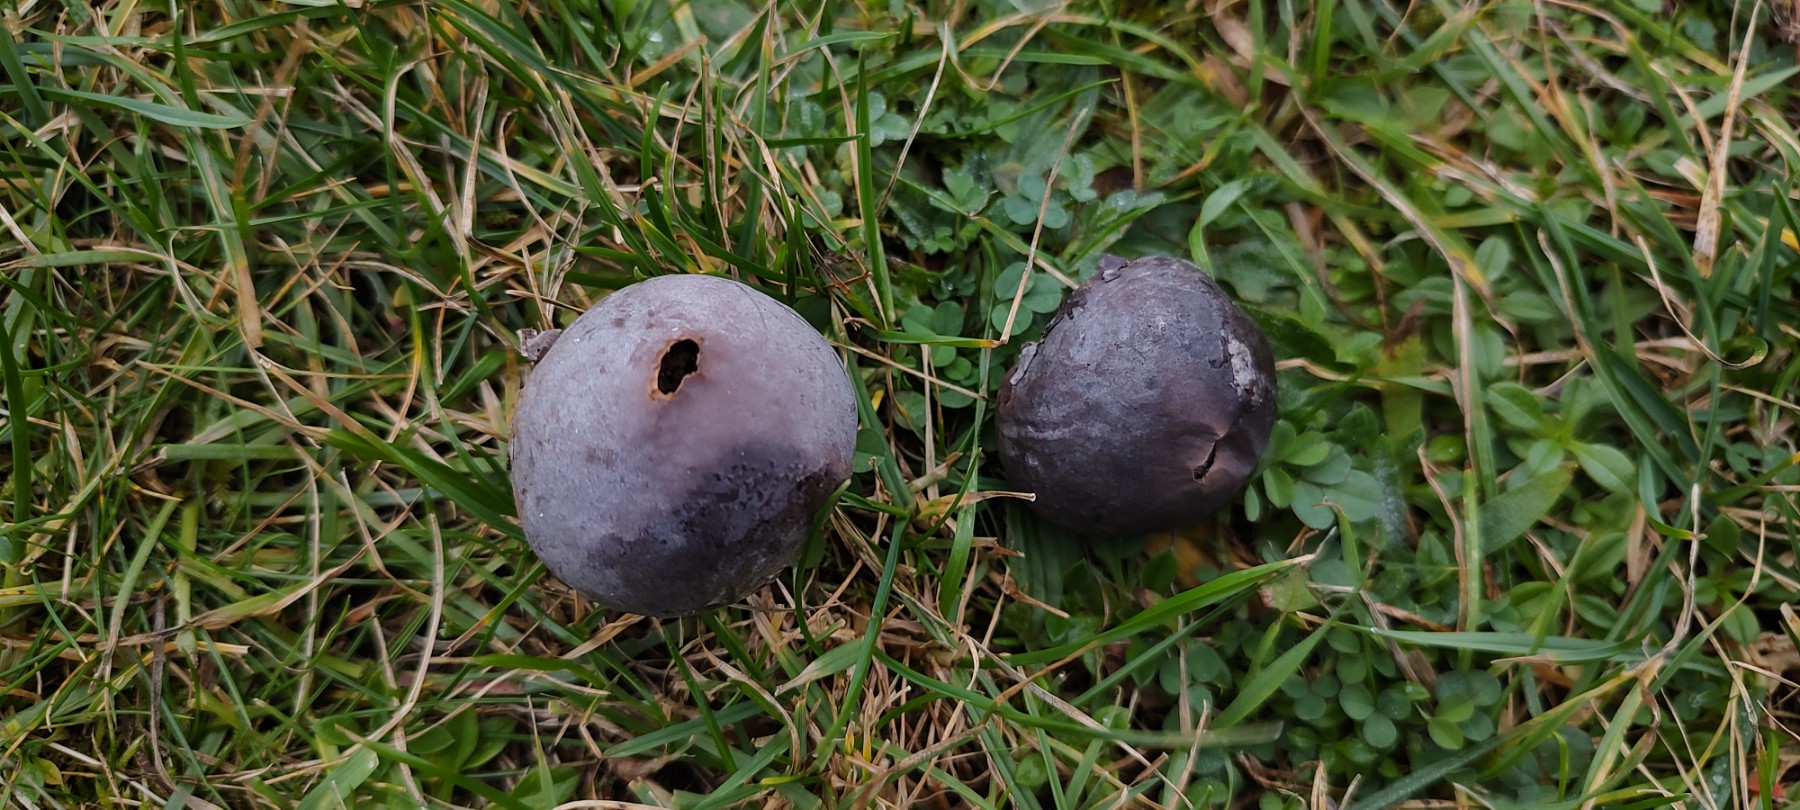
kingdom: Fungi
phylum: Basidiomycota
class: Agaricomycetes
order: Agaricales
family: Lycoperdaceae
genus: Bovista
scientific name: Bovista plumbea
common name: blygrå bovist
